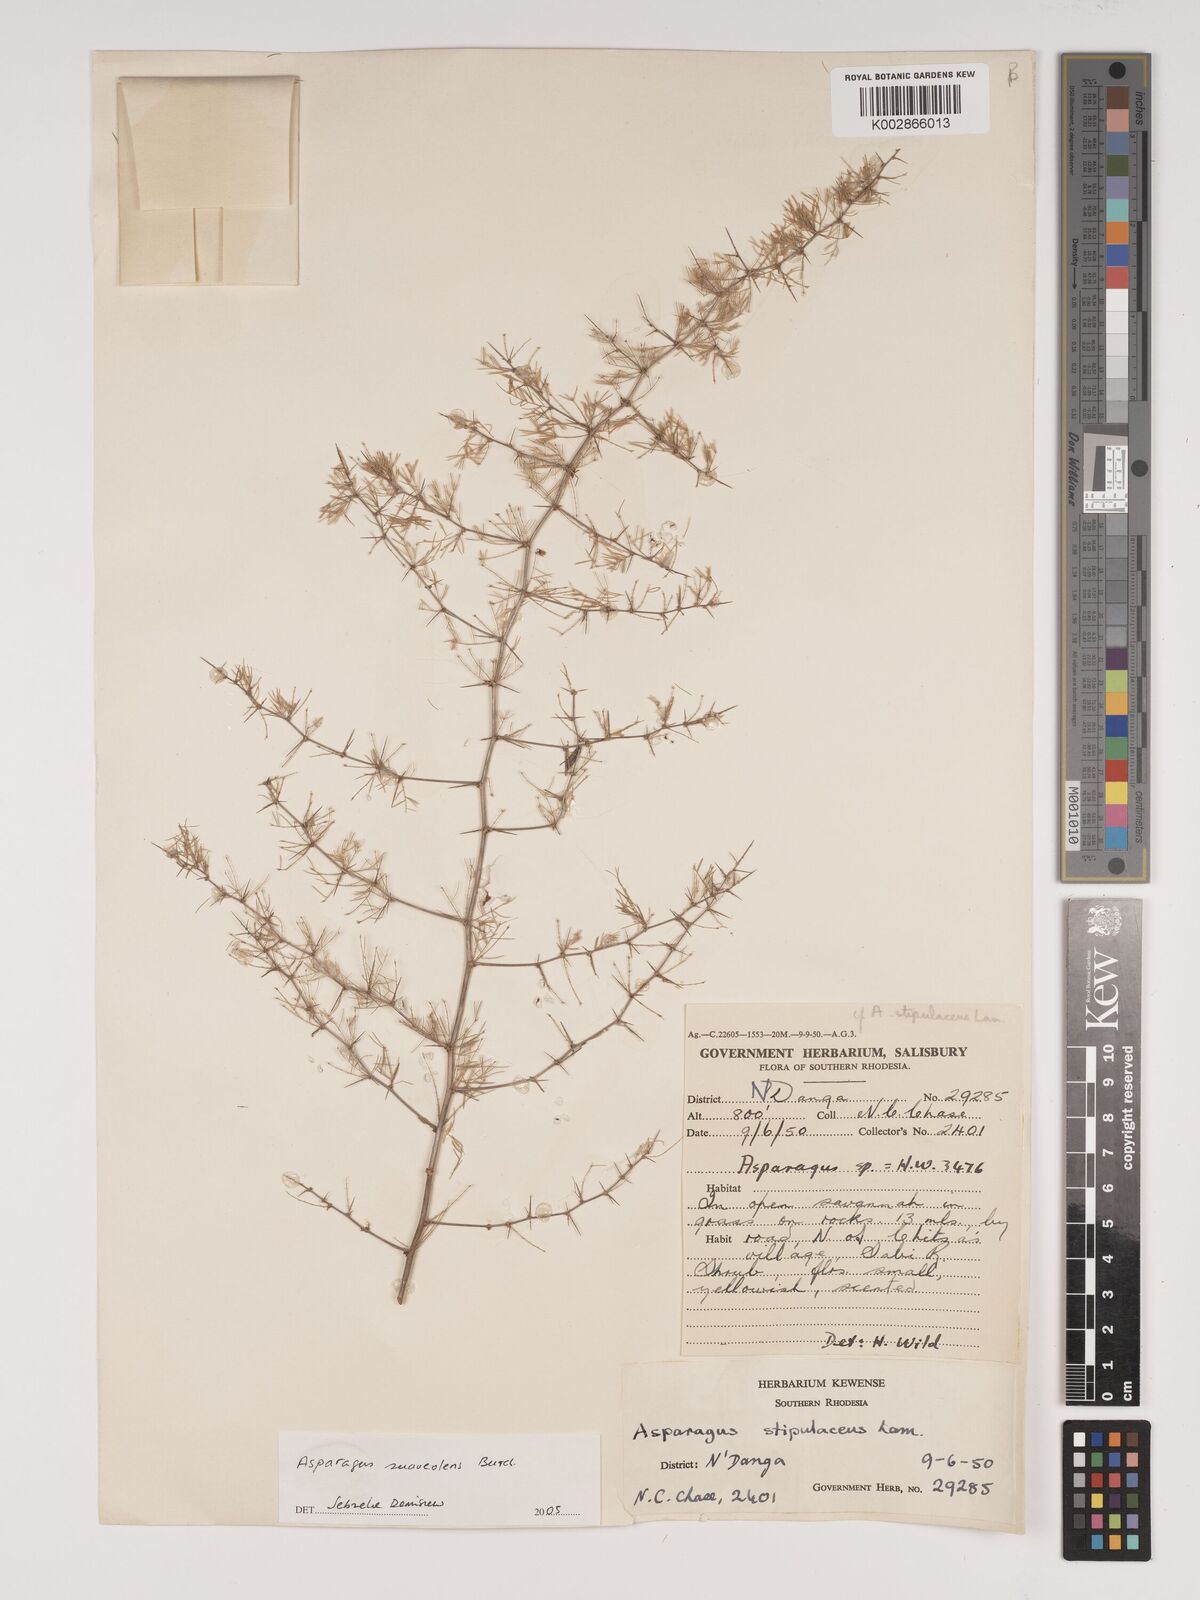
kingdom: Plantae
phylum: Tracheophyta
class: Liliopsida
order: Asparagales
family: Asparagaceae
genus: Asparagus
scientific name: Asparagus suaveolens
